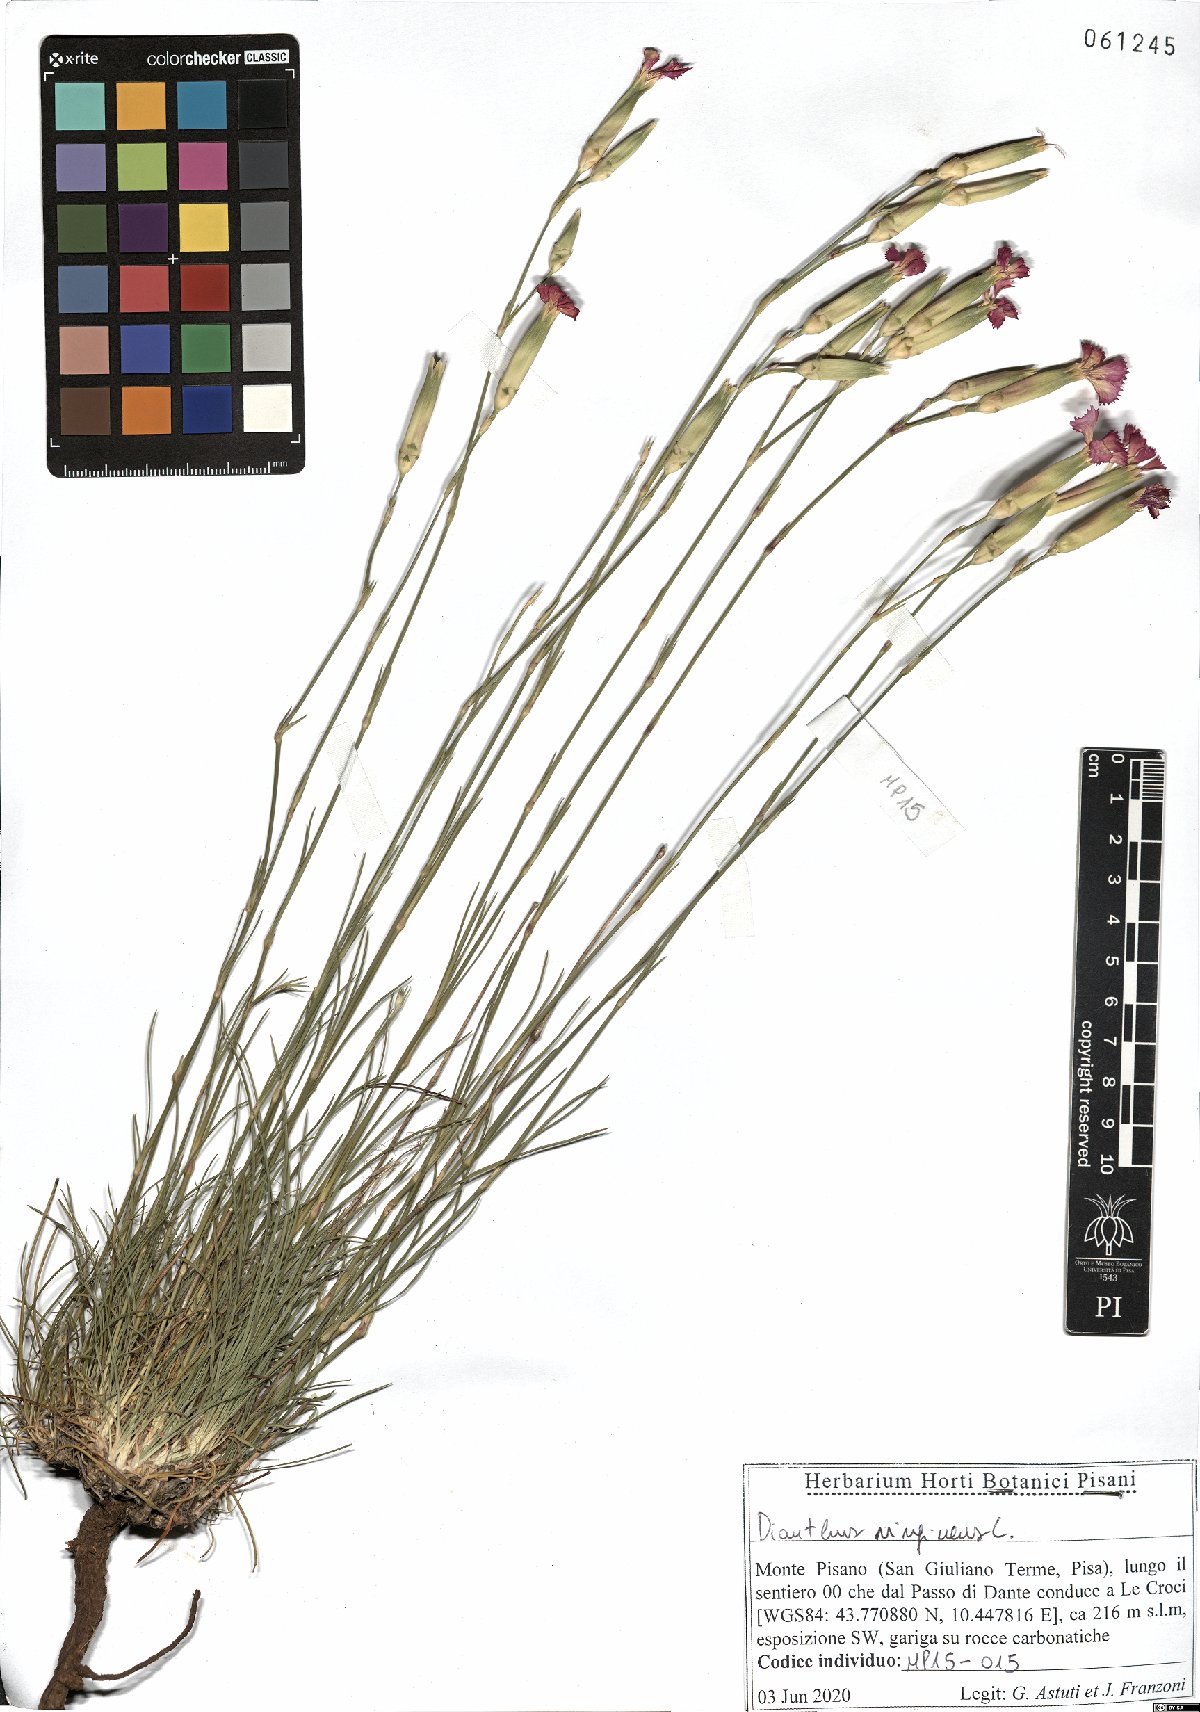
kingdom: Plantae
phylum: Tracheophyta
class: Magnoliopsida
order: Caryophyllales
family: Caryophyllaceae
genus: Dianthus
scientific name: Dianthus virgineus
